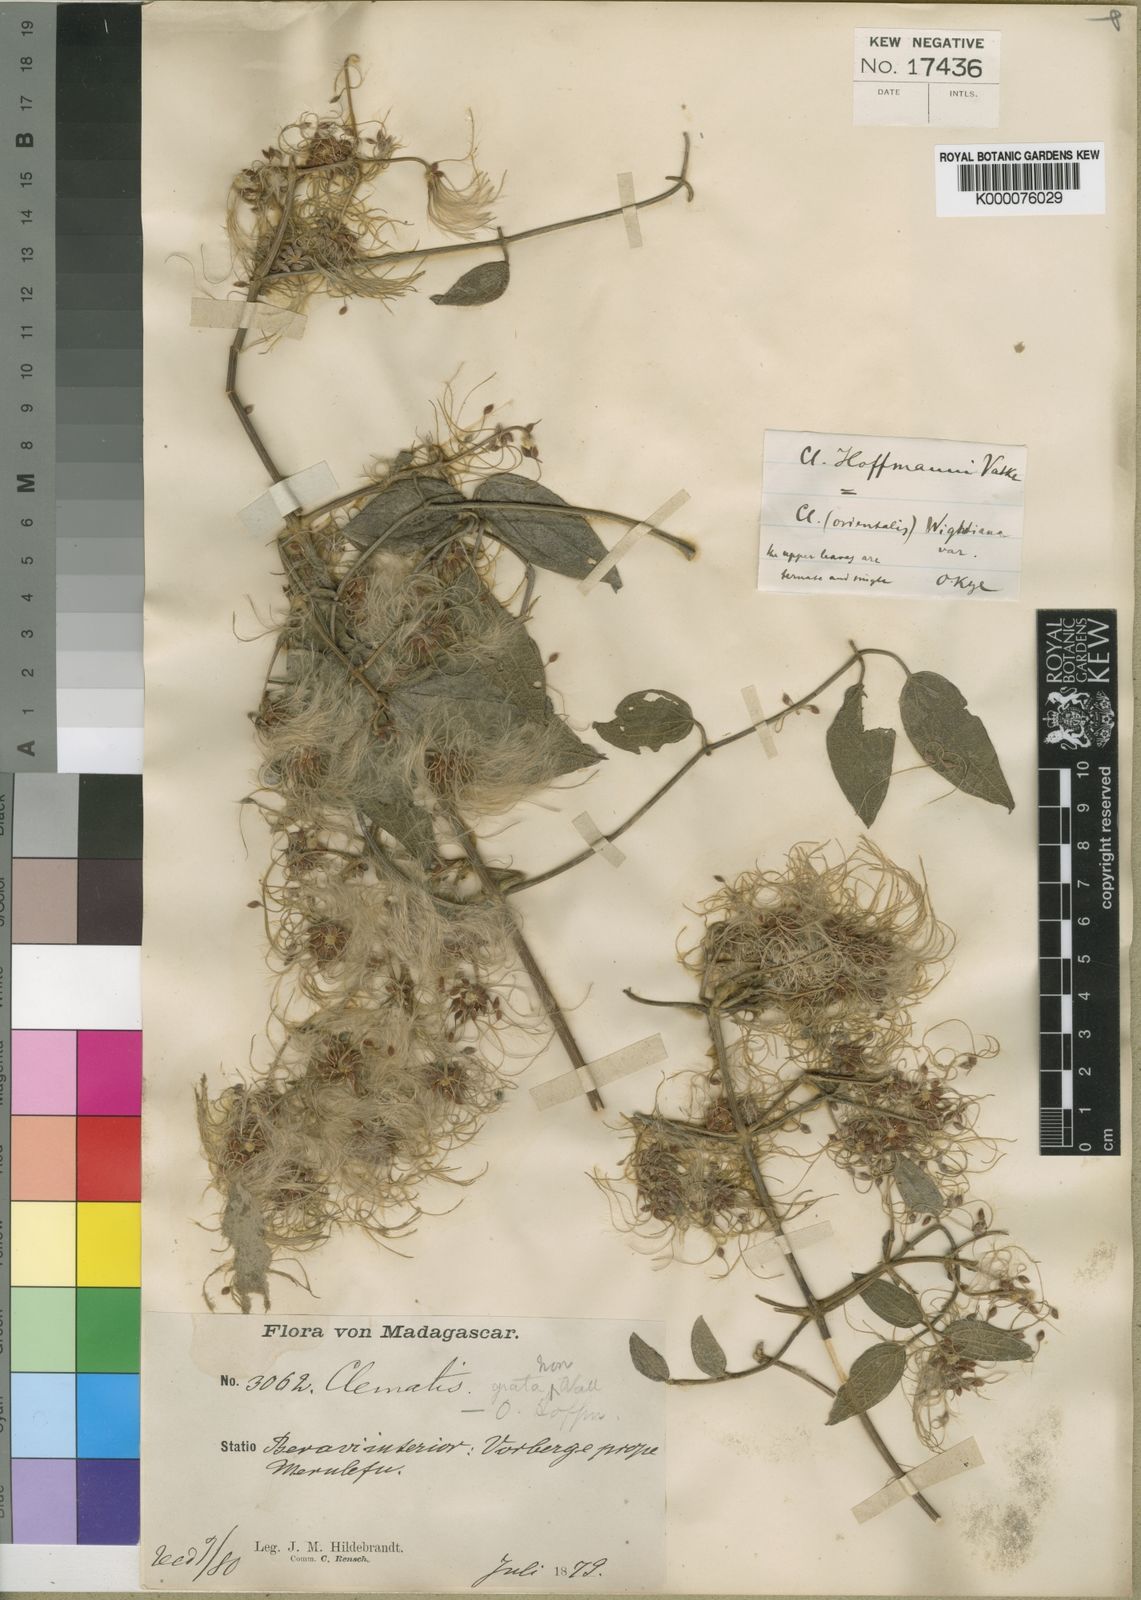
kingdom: Plantae
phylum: Tracheophyta
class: Magnoliopsida
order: Ranunculales
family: Ranunculaceae
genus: Clematis
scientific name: Clematis ibarensis
